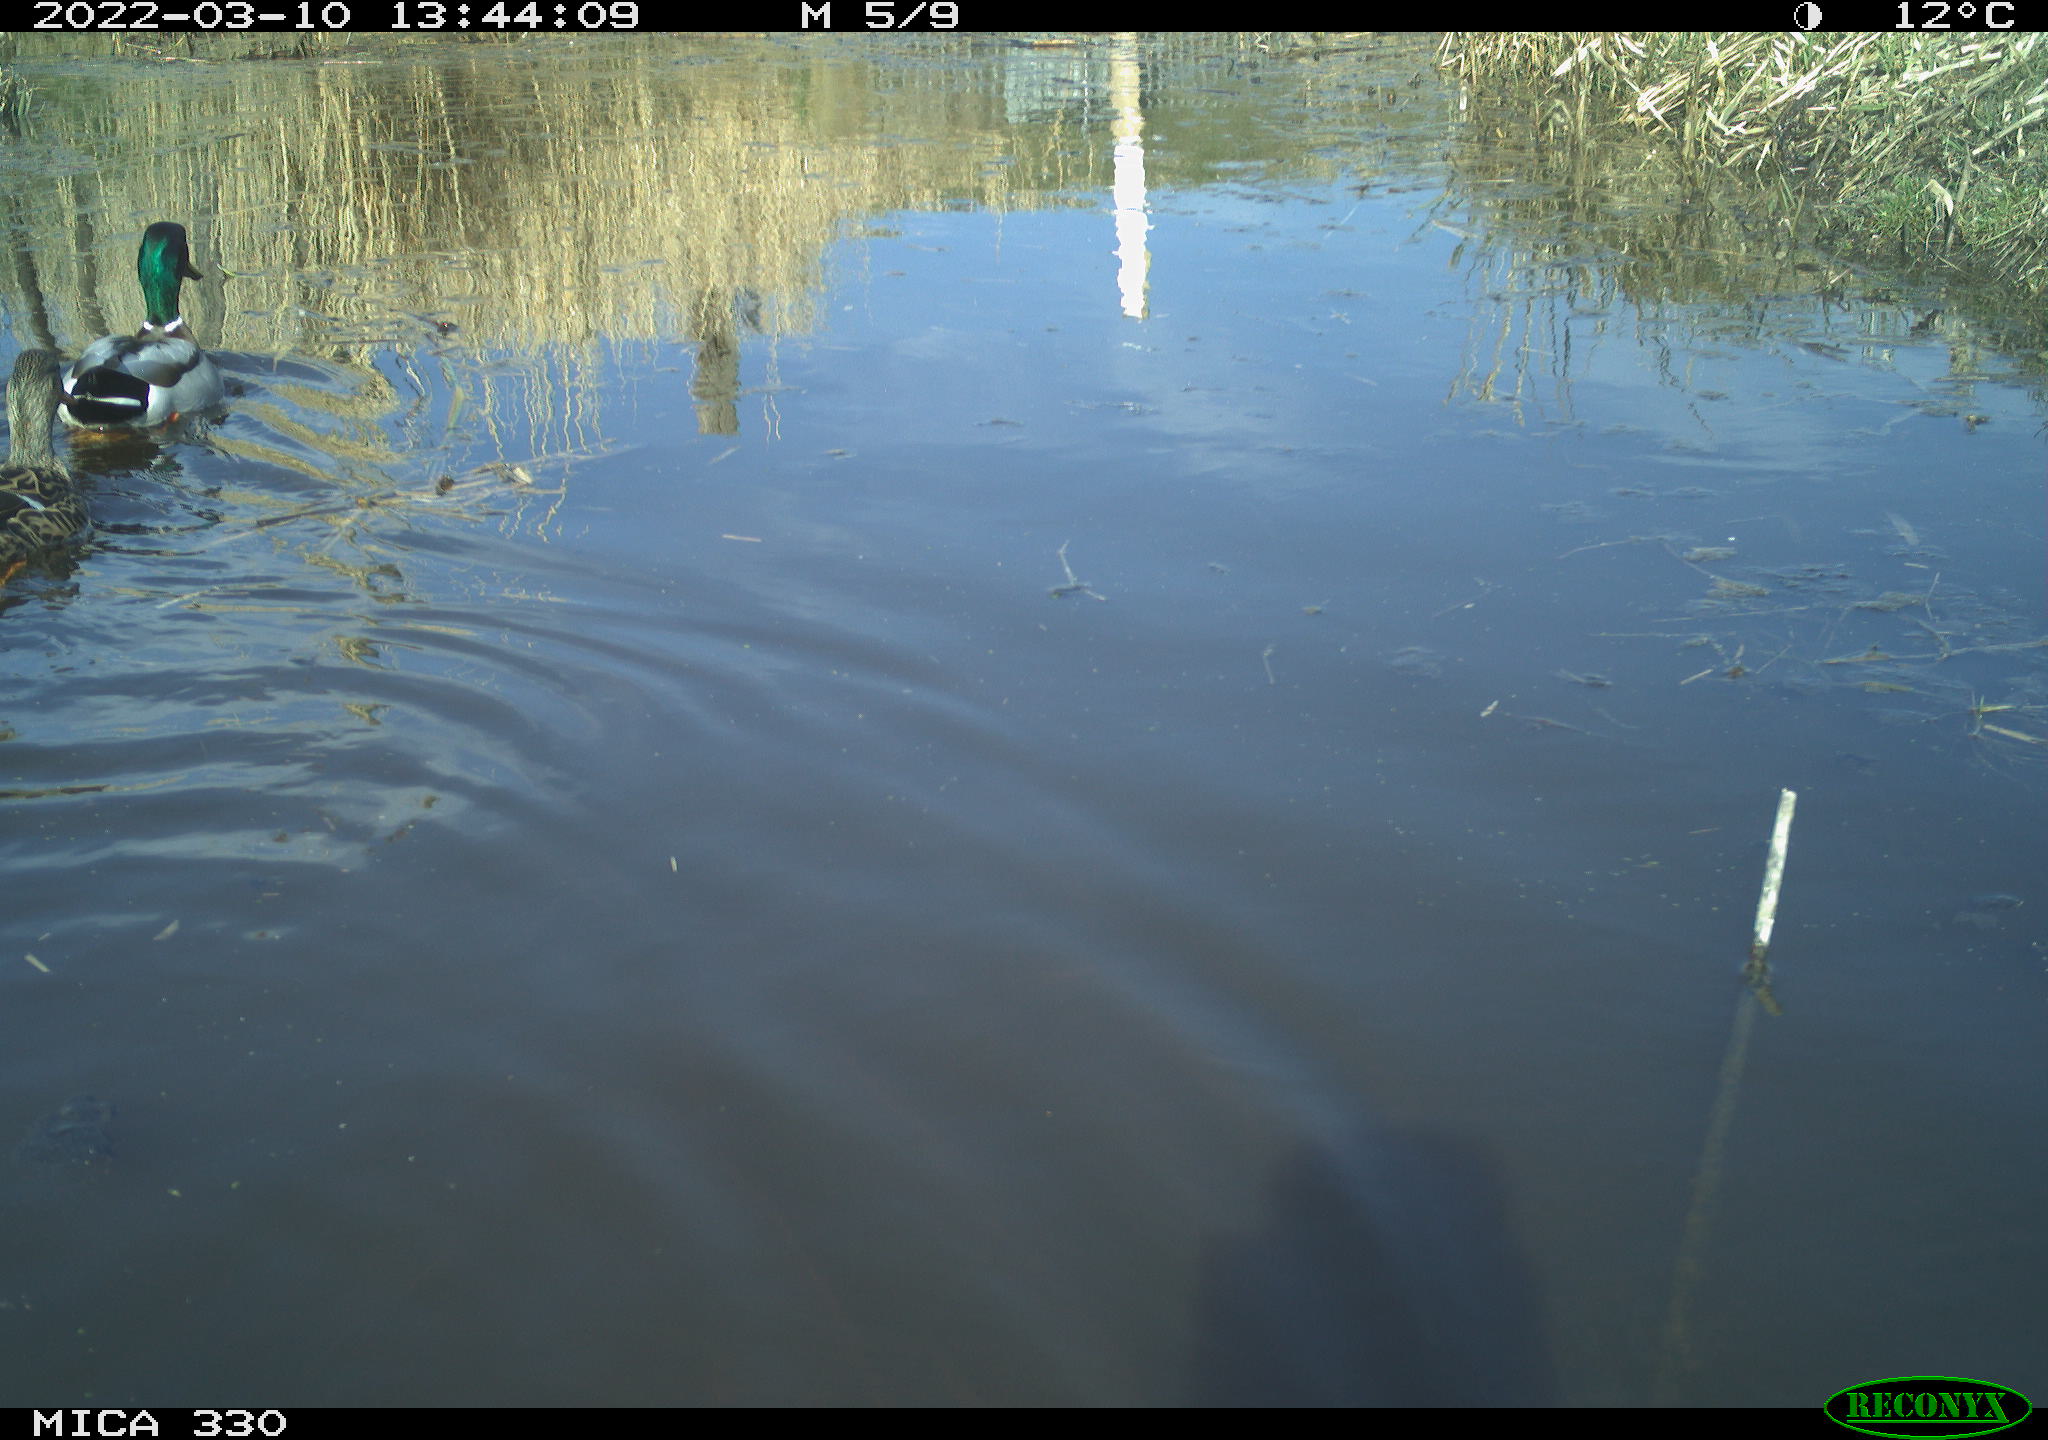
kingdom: Animalia
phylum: Chordata
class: Aves
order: Anseriformes
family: Anatidae
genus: Anas
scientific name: Anas platyrhynchos
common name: Mallard
